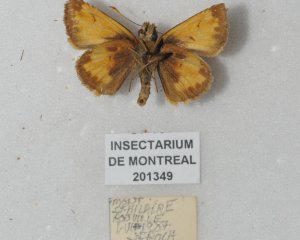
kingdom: Animalia
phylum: Arthropoda
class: Insecta
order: Lepidoptera
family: Hesperiidae
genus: Lon
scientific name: Lon hobomok
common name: Hobomok Skipper
